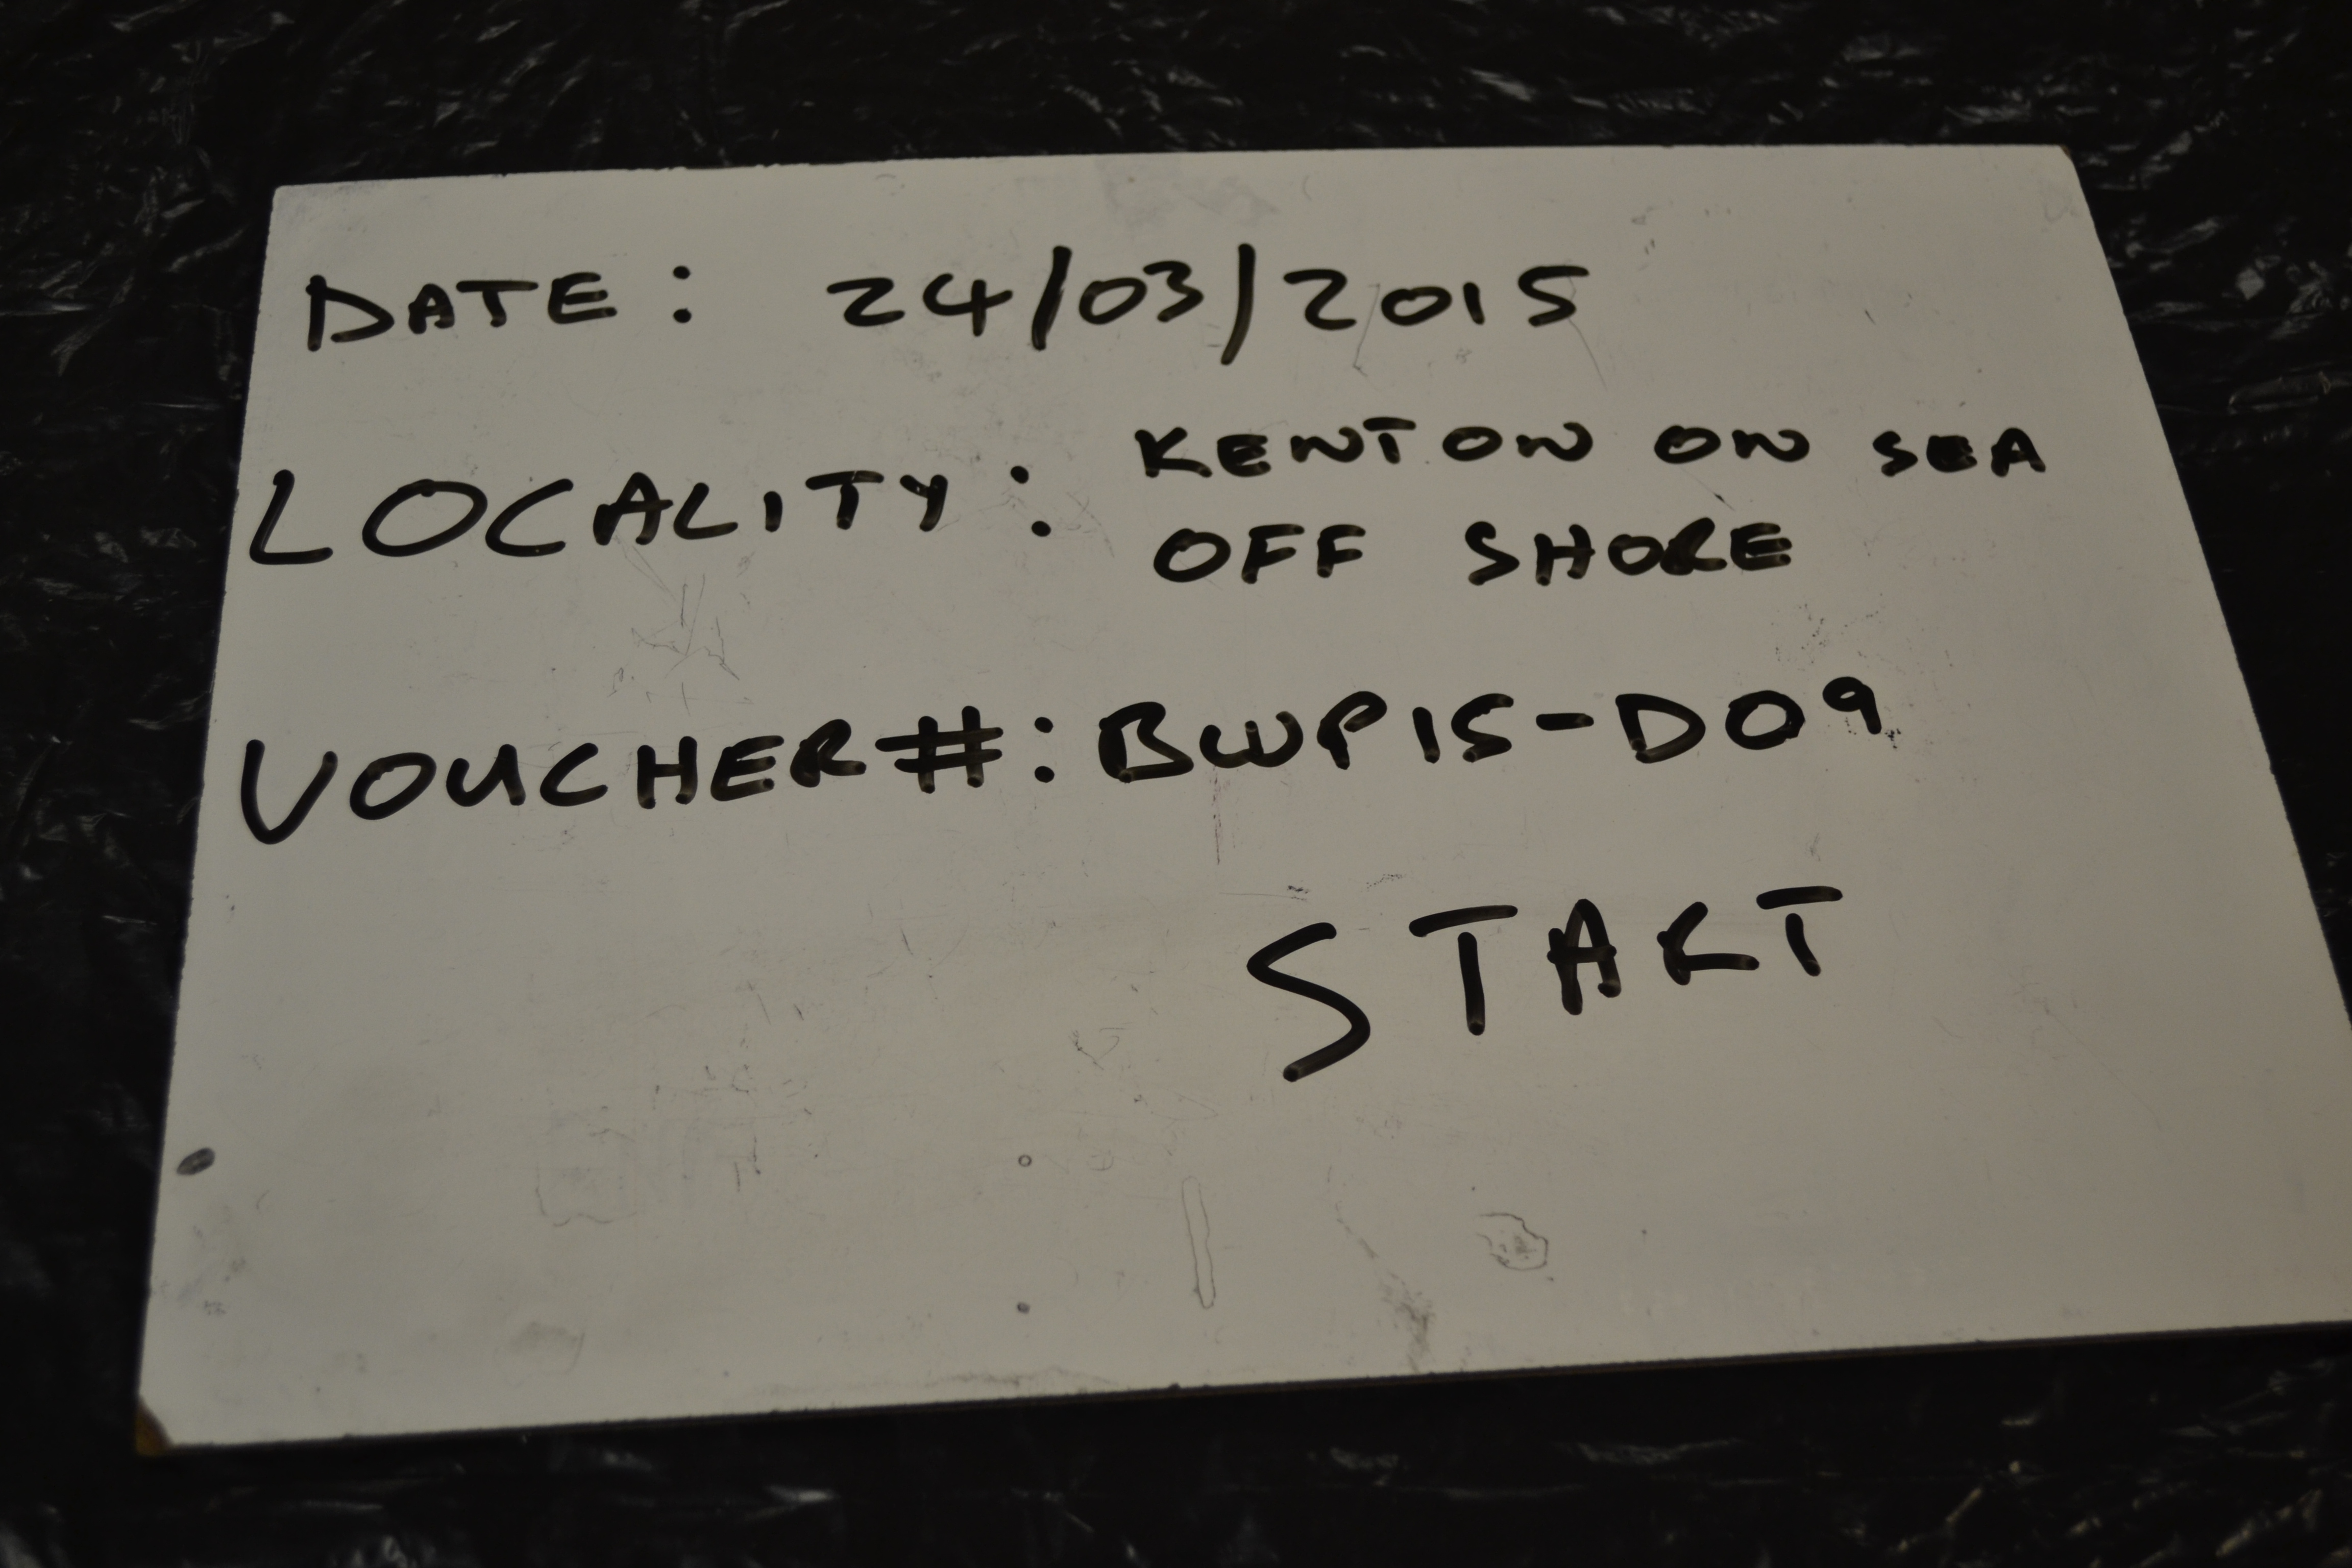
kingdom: Animalia
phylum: Chordata
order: Perciformes
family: Sparidae
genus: Sarpa
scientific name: Sarpa salpa
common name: Salema
